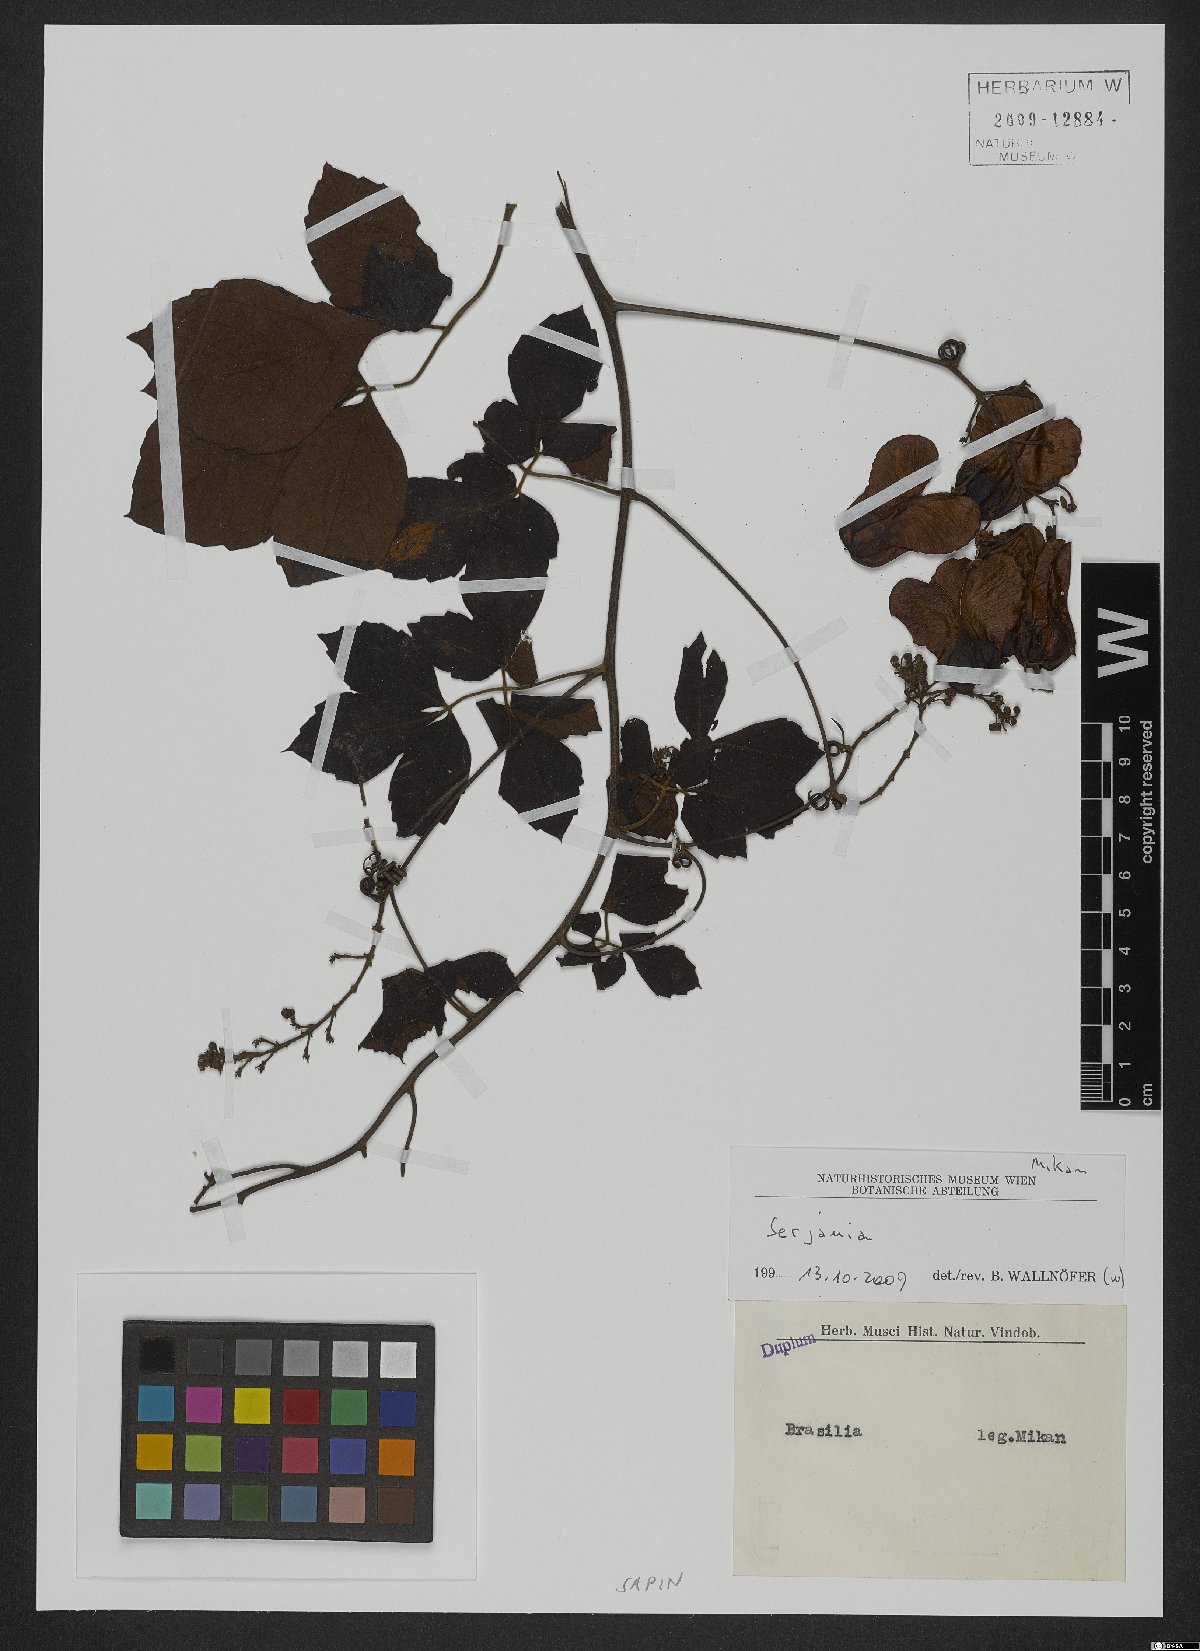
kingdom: Plantae
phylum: Tracheophyta
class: Magnoliopsida
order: Sapindales
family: Sapindaceae
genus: Serjania
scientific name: Serjania
